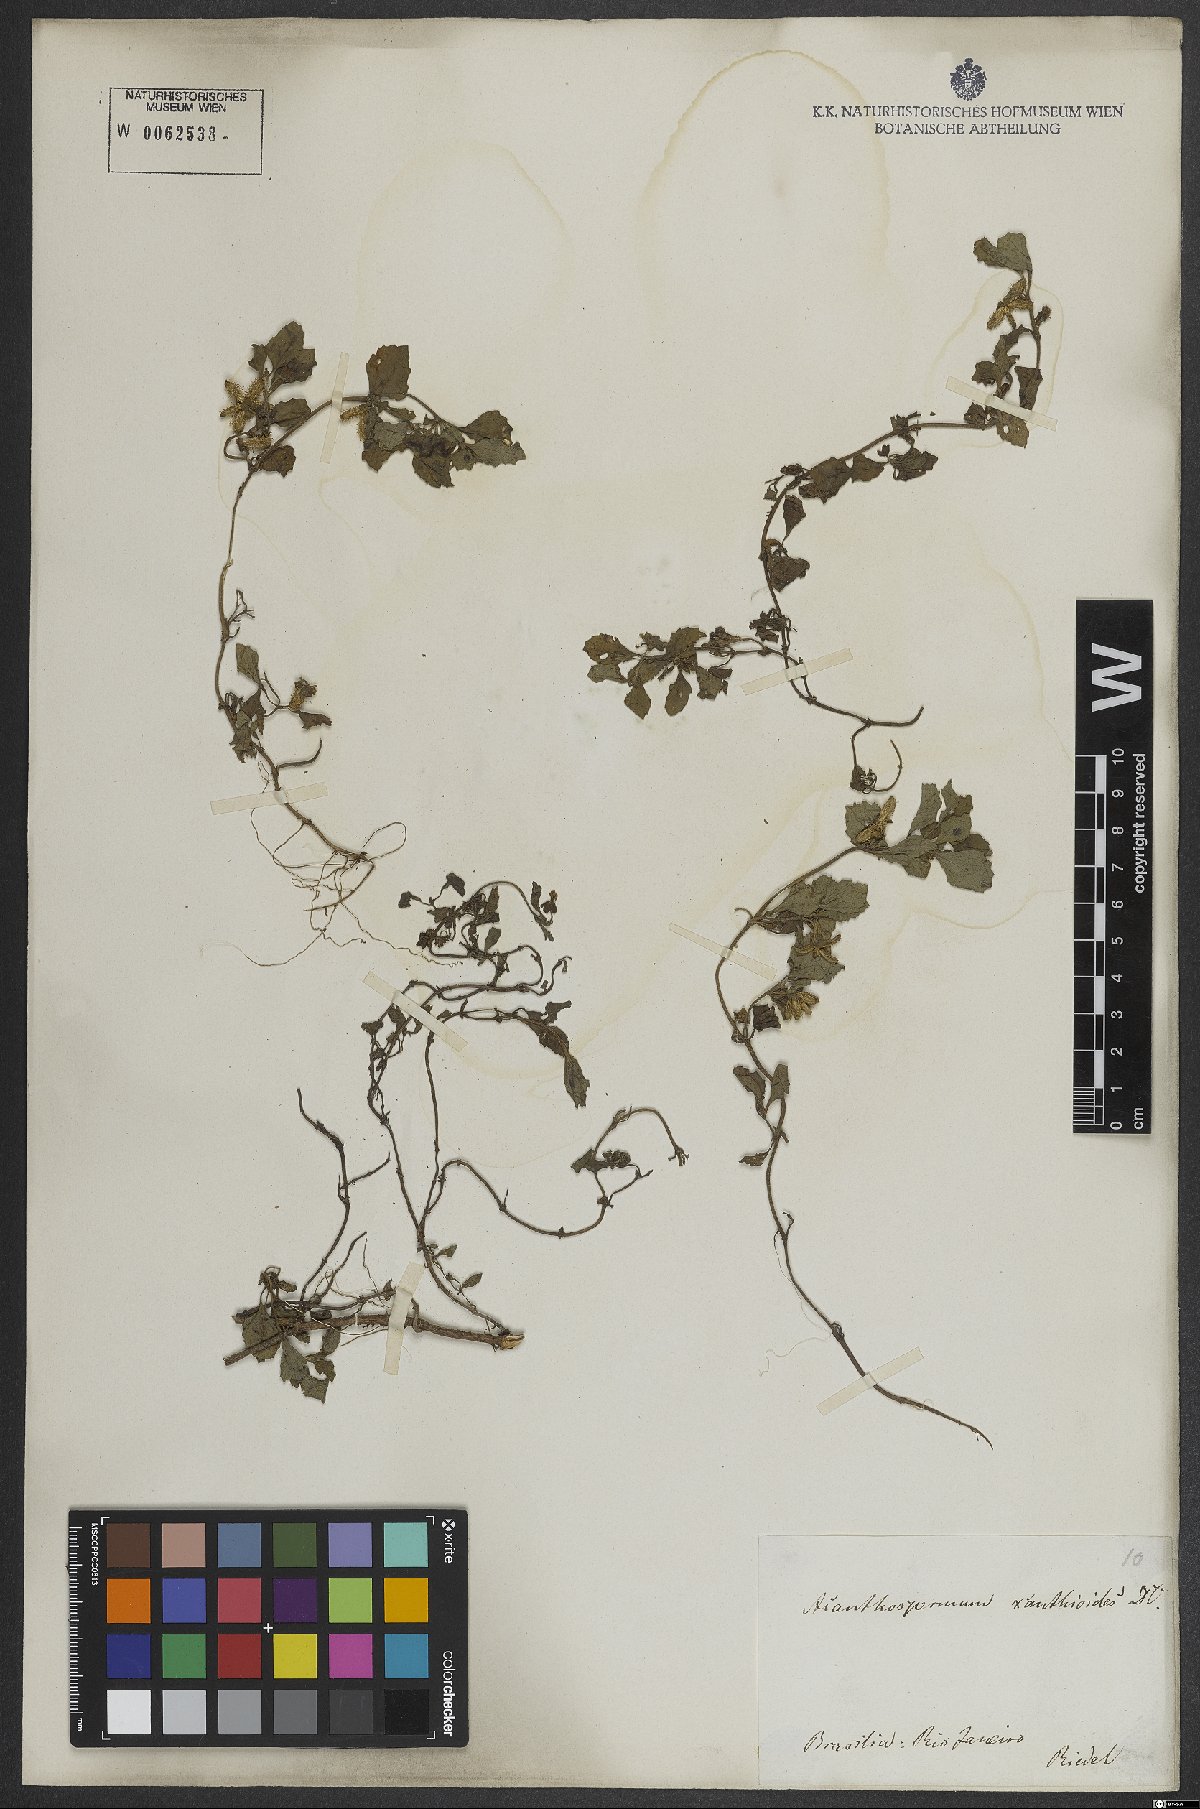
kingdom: Plantae
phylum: Tracheophyta
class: Magnoliopsida
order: Asterales
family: Asteraceae
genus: Acanthospermum
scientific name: Acanthospermum australe
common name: Paraguayan starbur
